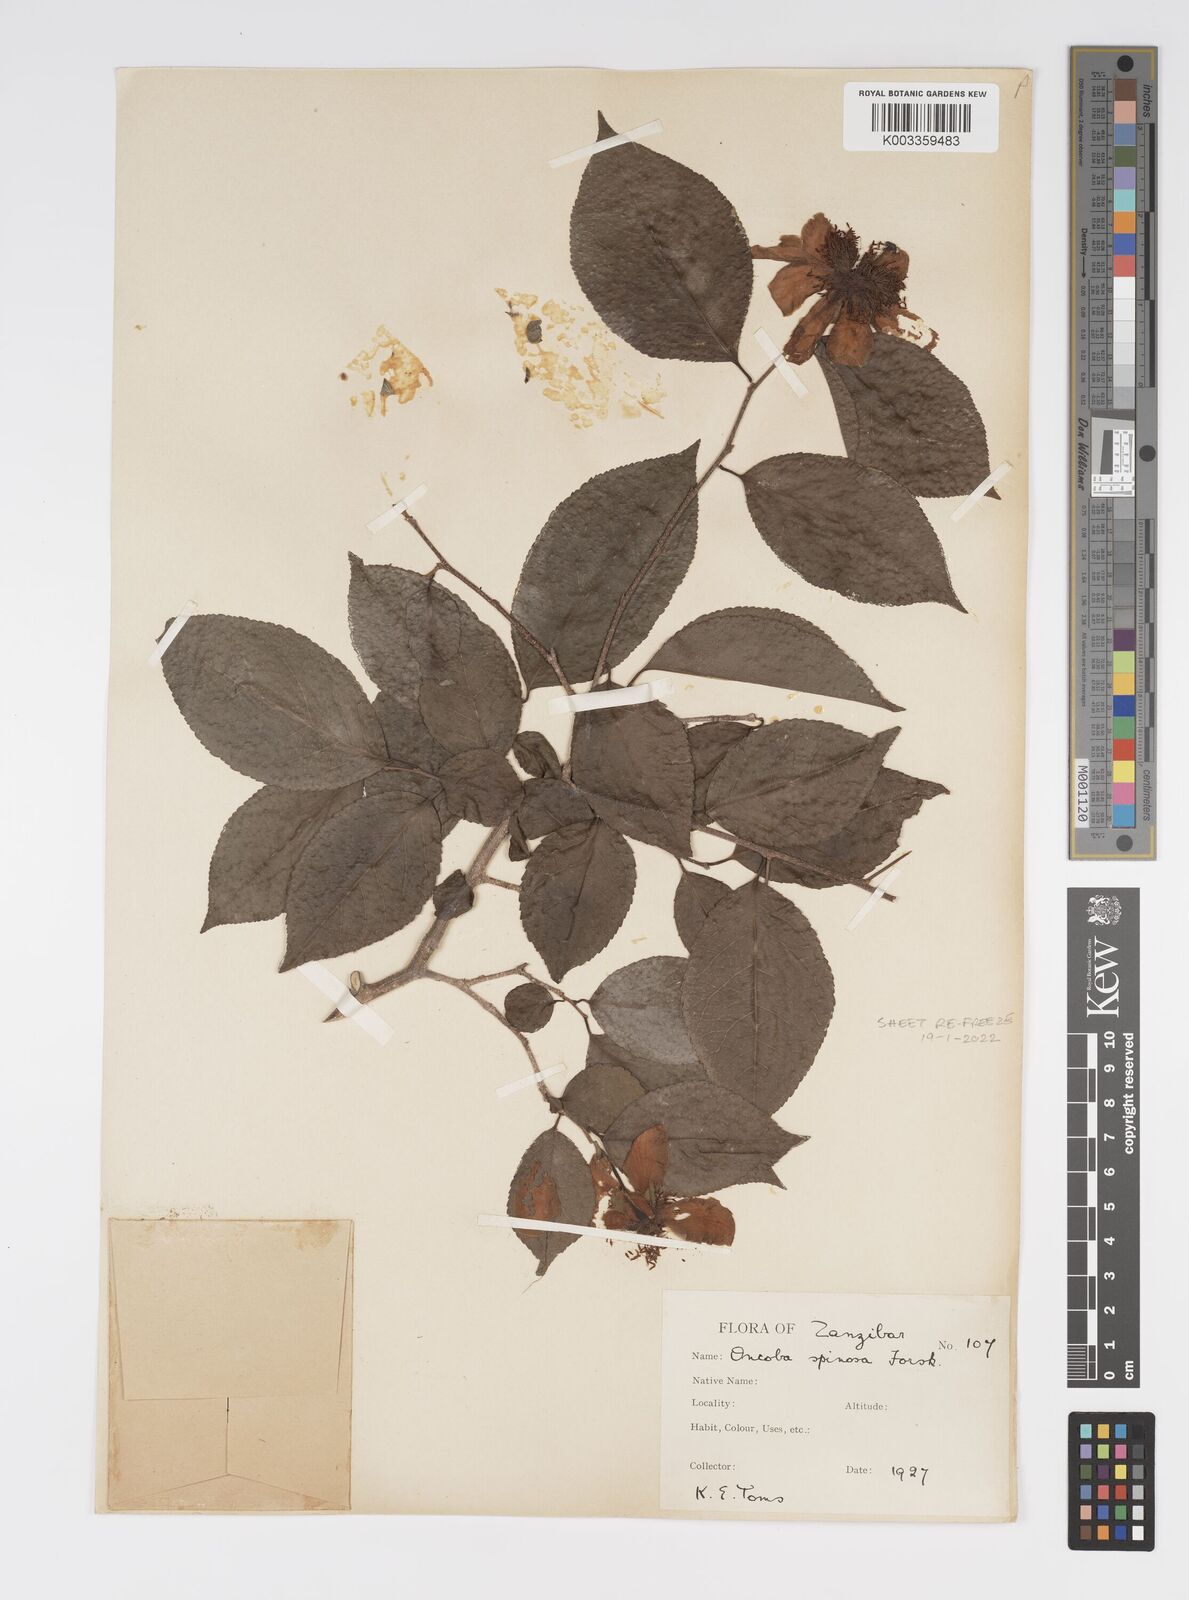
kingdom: Plantae
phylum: Tracheophyta
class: Magnoliopsida
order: Malpighiales
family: Salicaceae
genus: Oncoba
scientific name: Oncoba spinosa
